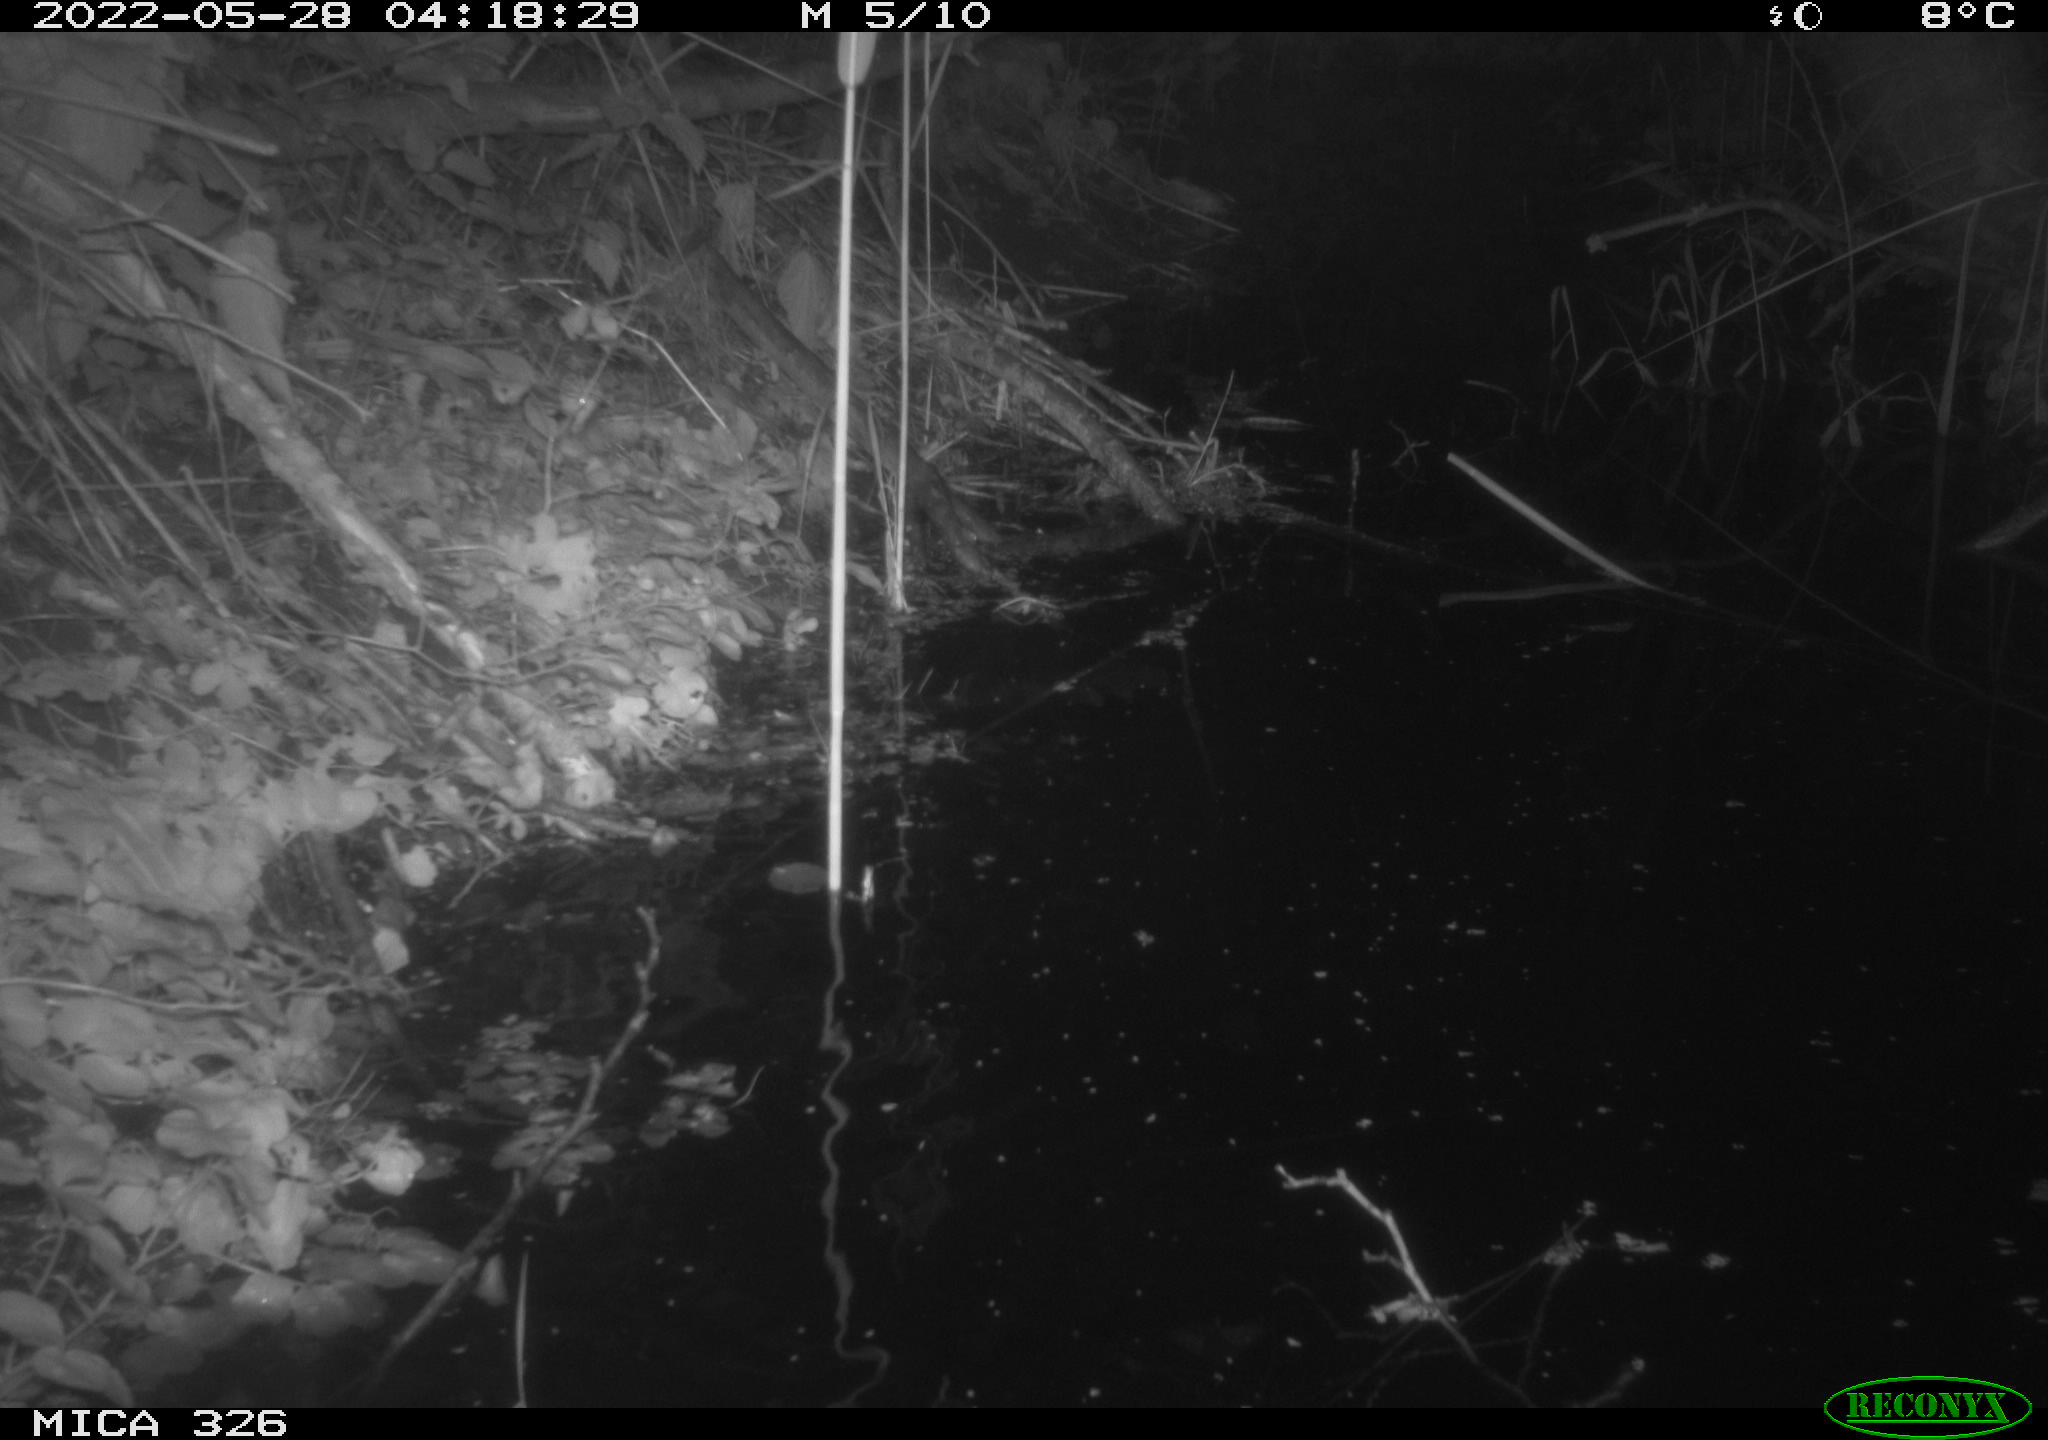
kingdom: Animalia
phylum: Chordata
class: Mammalia
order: Rodentia
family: Muridae
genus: Rattus
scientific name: Rattus norvegicus
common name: Brown rat
